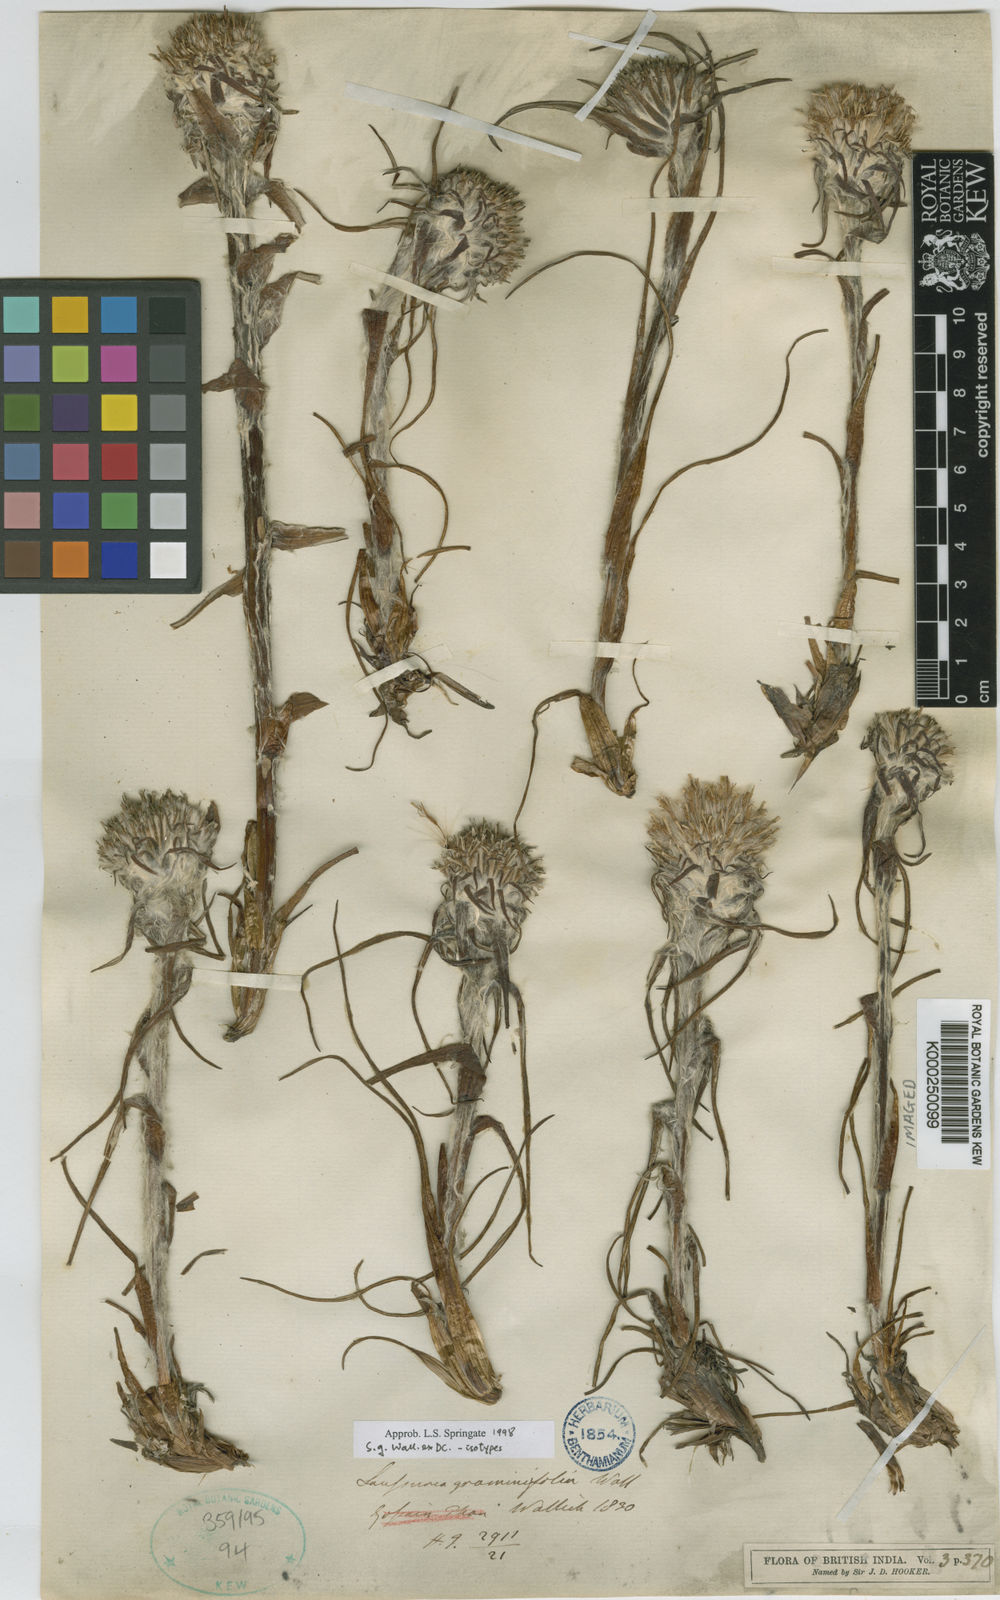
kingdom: Plantae
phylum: Tracheophyta
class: Magnoliopsida
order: Asterales
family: Asteraceae
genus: Saussurea
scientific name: Saussurea graminifolia
